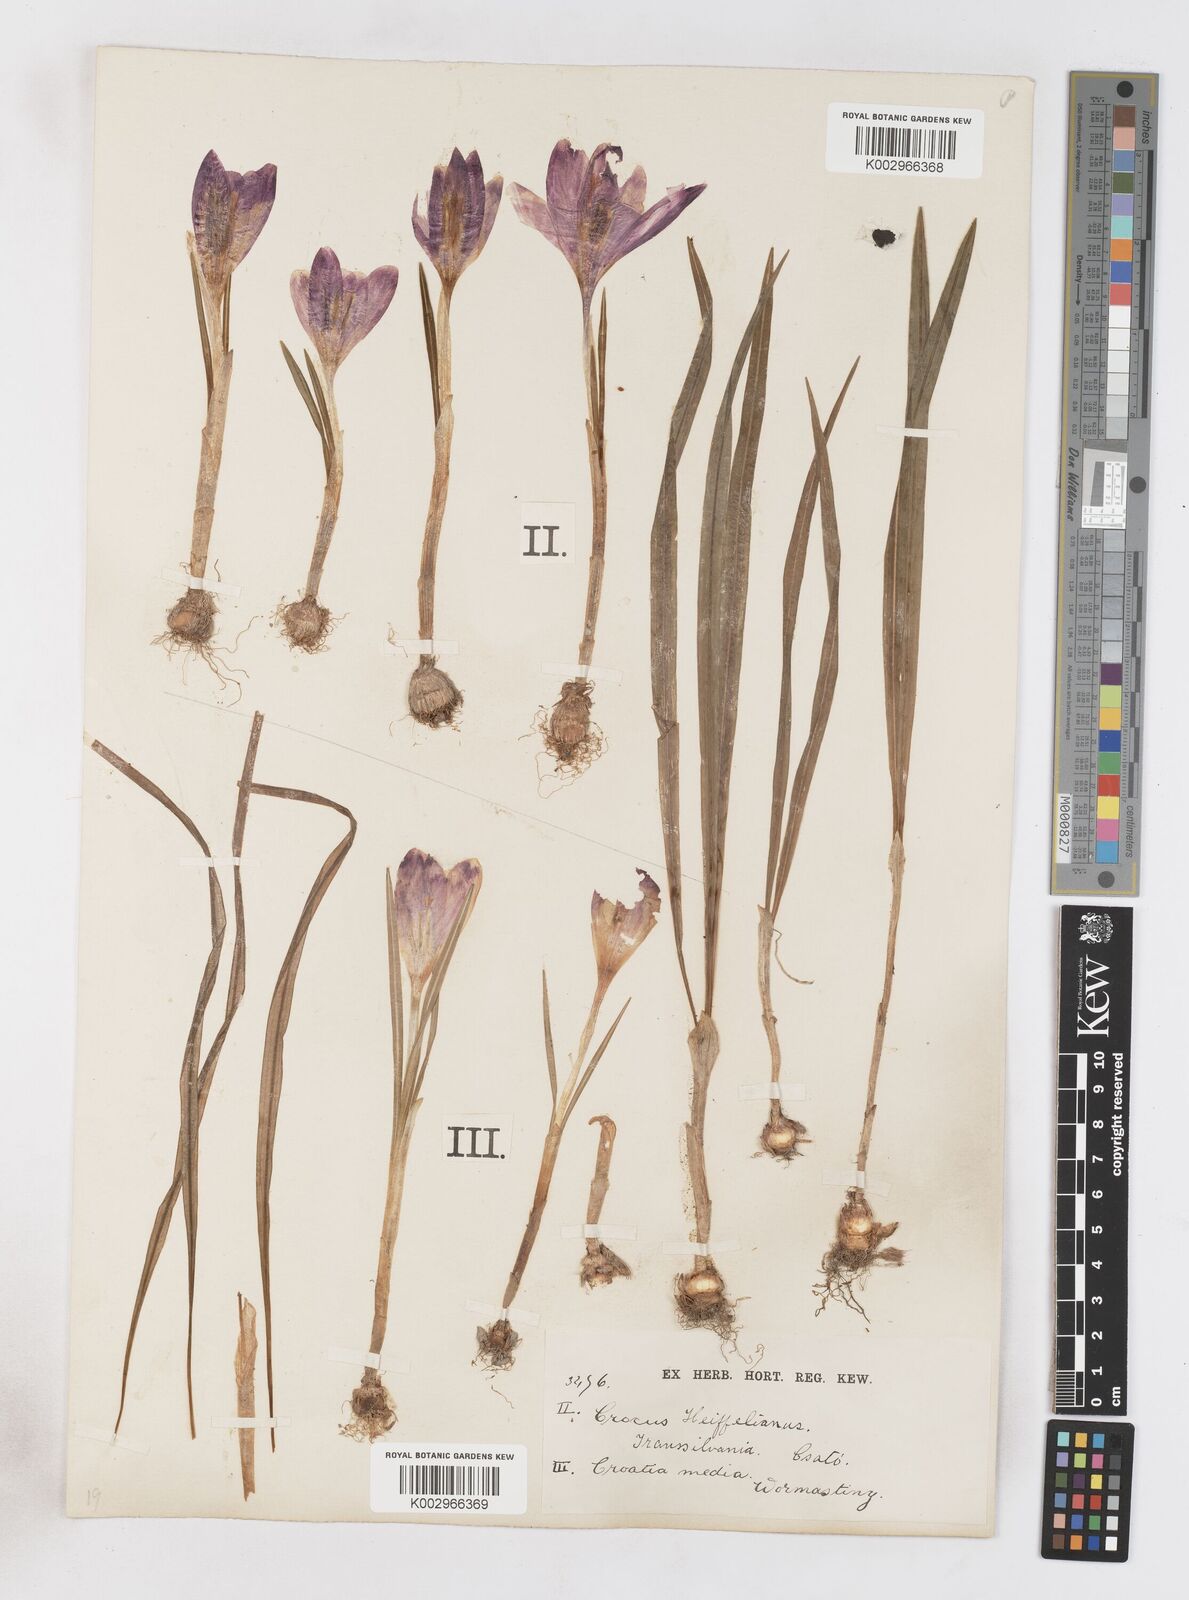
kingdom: Plantae
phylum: Tracheophyta
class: Liliopsida
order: Asparagales
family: Iridaceae
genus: Crocus
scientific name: Crocus vernus
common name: Spring crocus
